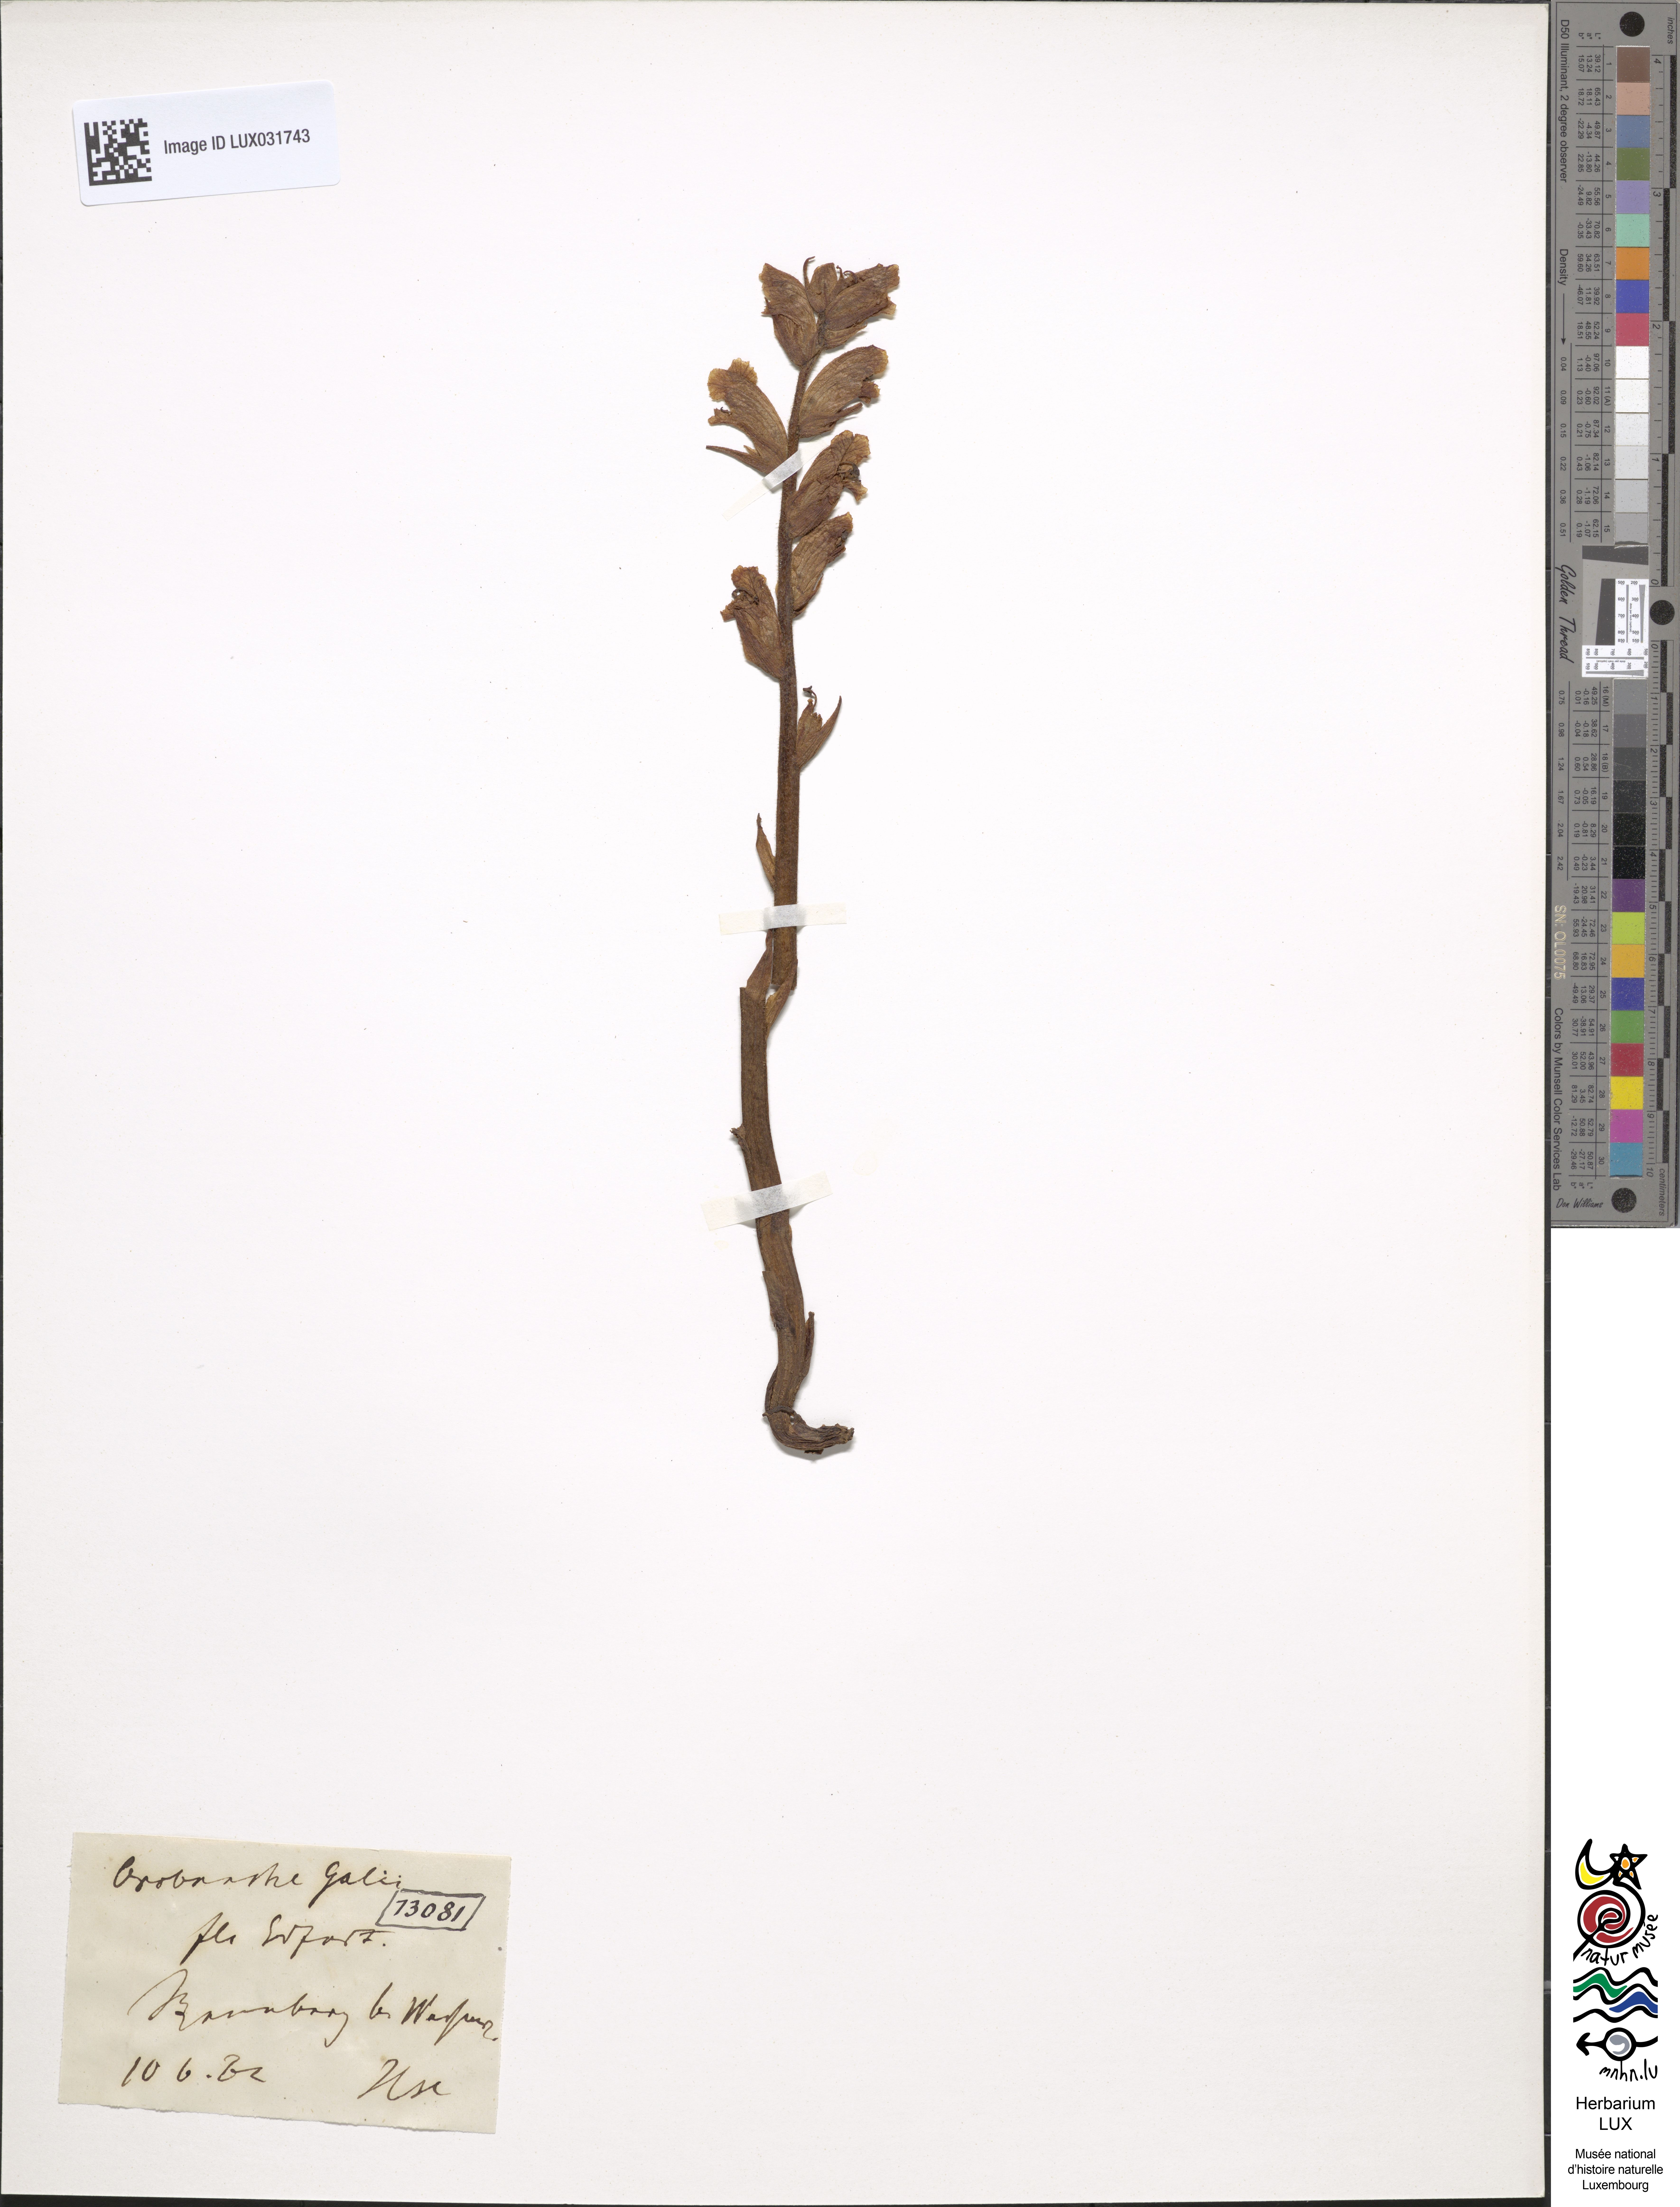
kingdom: Plantae
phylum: Tracheophyta
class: Magnoliopsida
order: Lamiales
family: Orobanchaceae
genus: Orobanche
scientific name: Orobanche caryophyllacea
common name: Bedstraw broomrape
